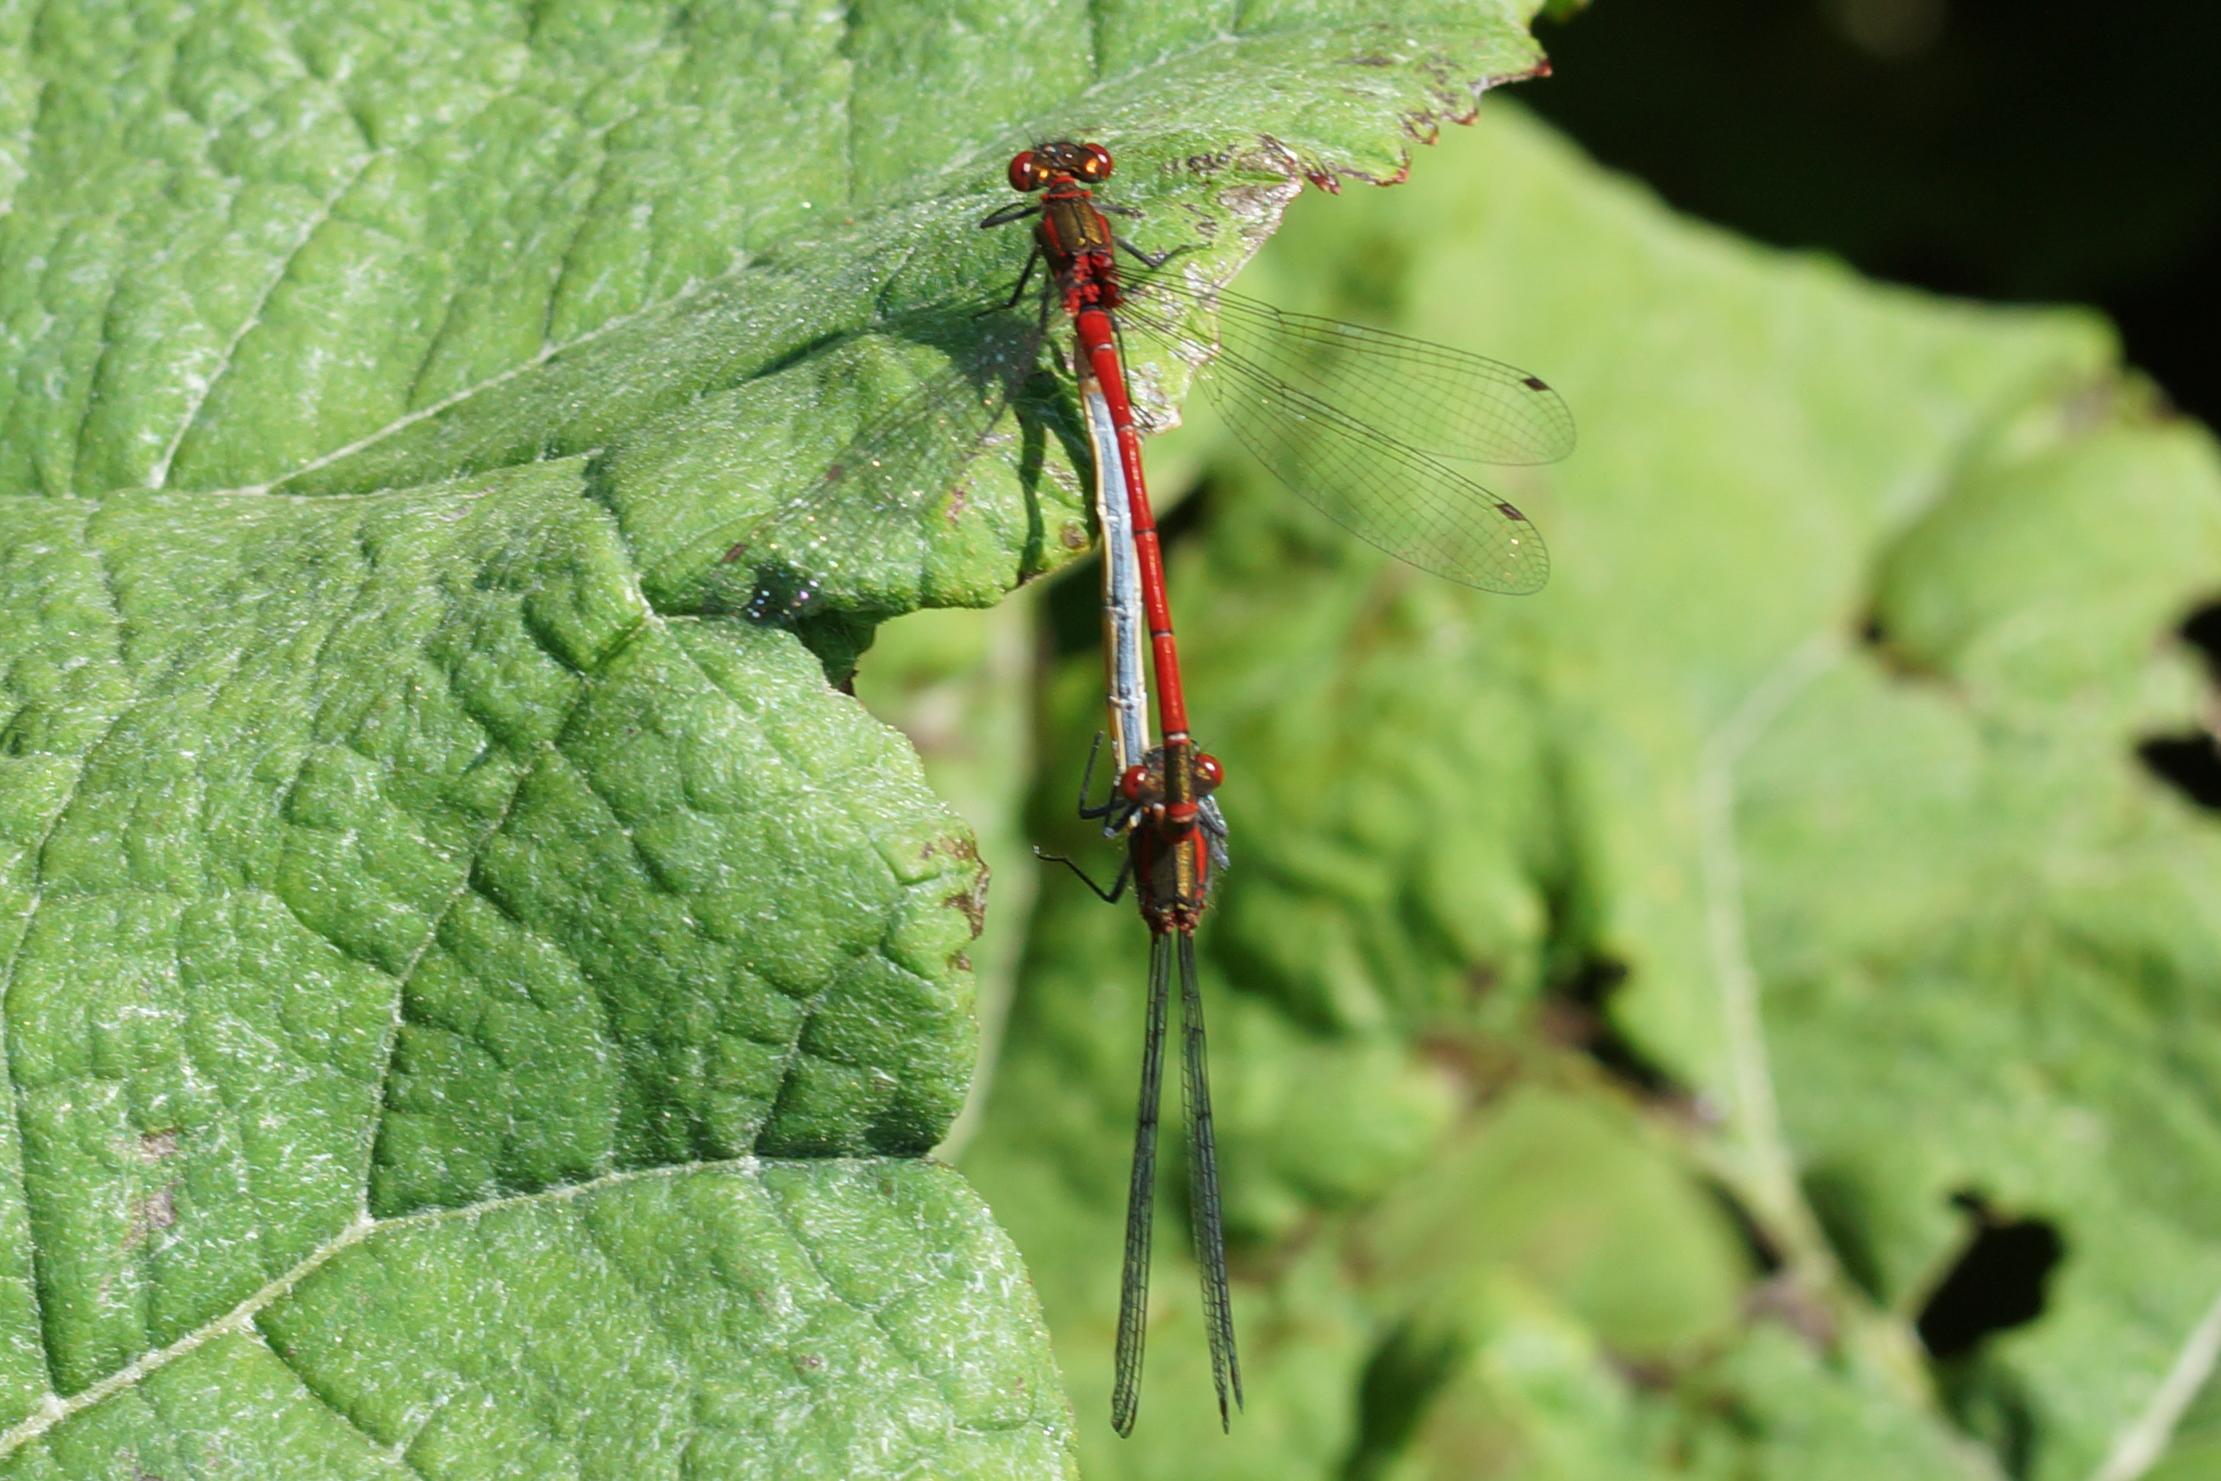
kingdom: Animalia
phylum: Arthropoda
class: Insecta
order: Odonata
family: Coenagrionidae
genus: Pyrrhosoma
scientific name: Pyrrhosoma nymphula
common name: Rød vandnymfe
